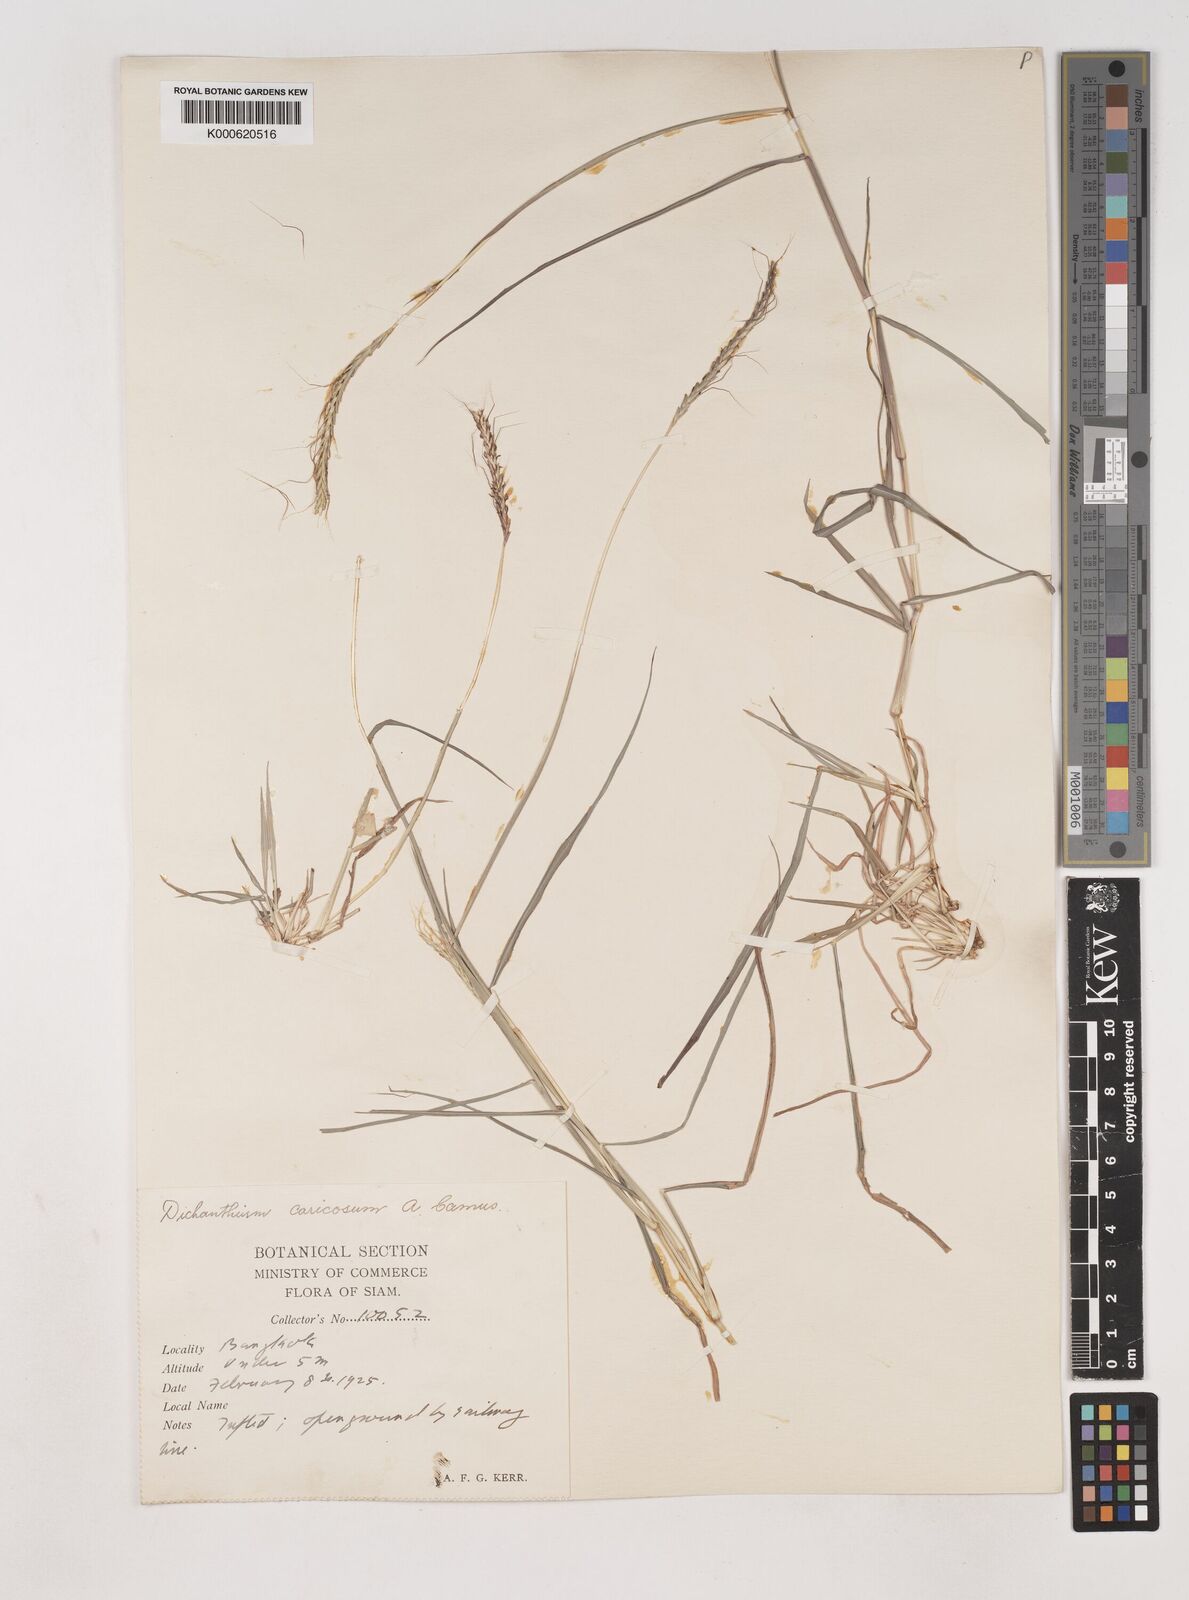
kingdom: Plantae
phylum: Tracheophyta
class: Liliopsida
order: Poales
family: Poaceae
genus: Dichanthium
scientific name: Dichanthium caricosum
